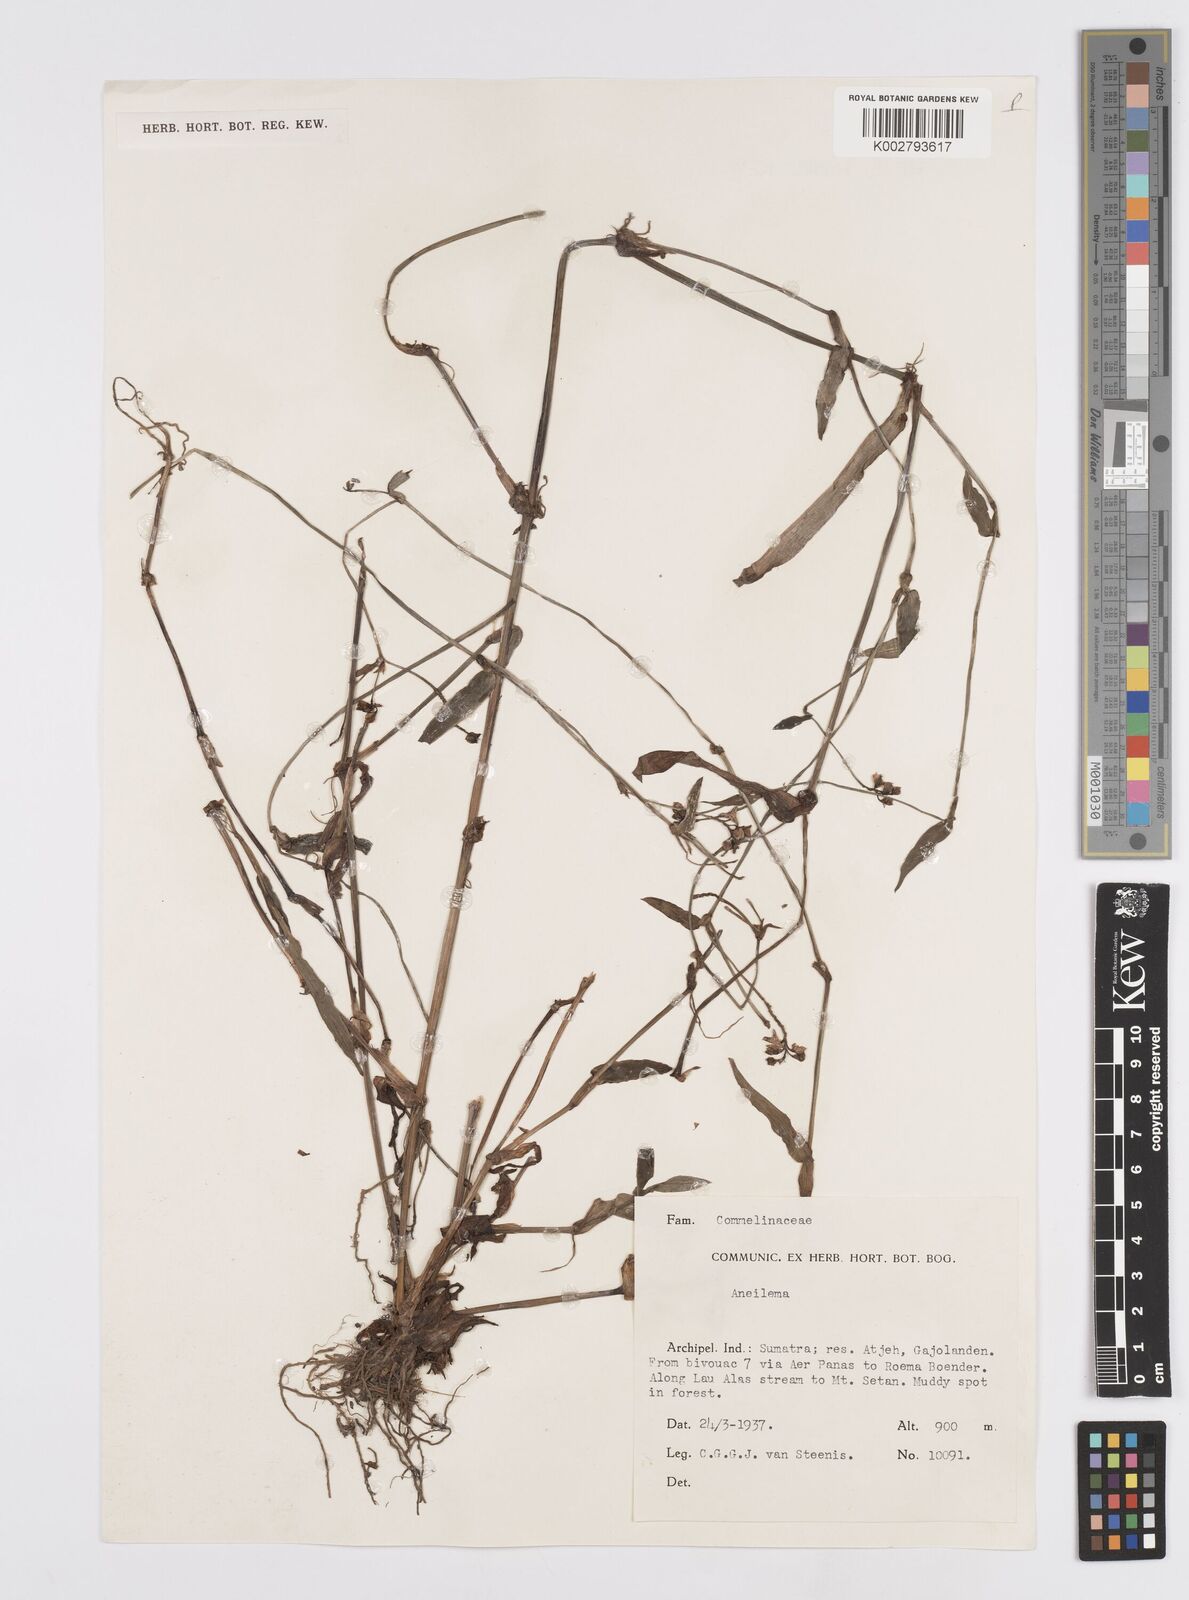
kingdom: Plantae
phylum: Tracheophyta
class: Liliopsida
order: Commelinales
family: Commelinaceae
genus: Murdannia
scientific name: Murdannia
